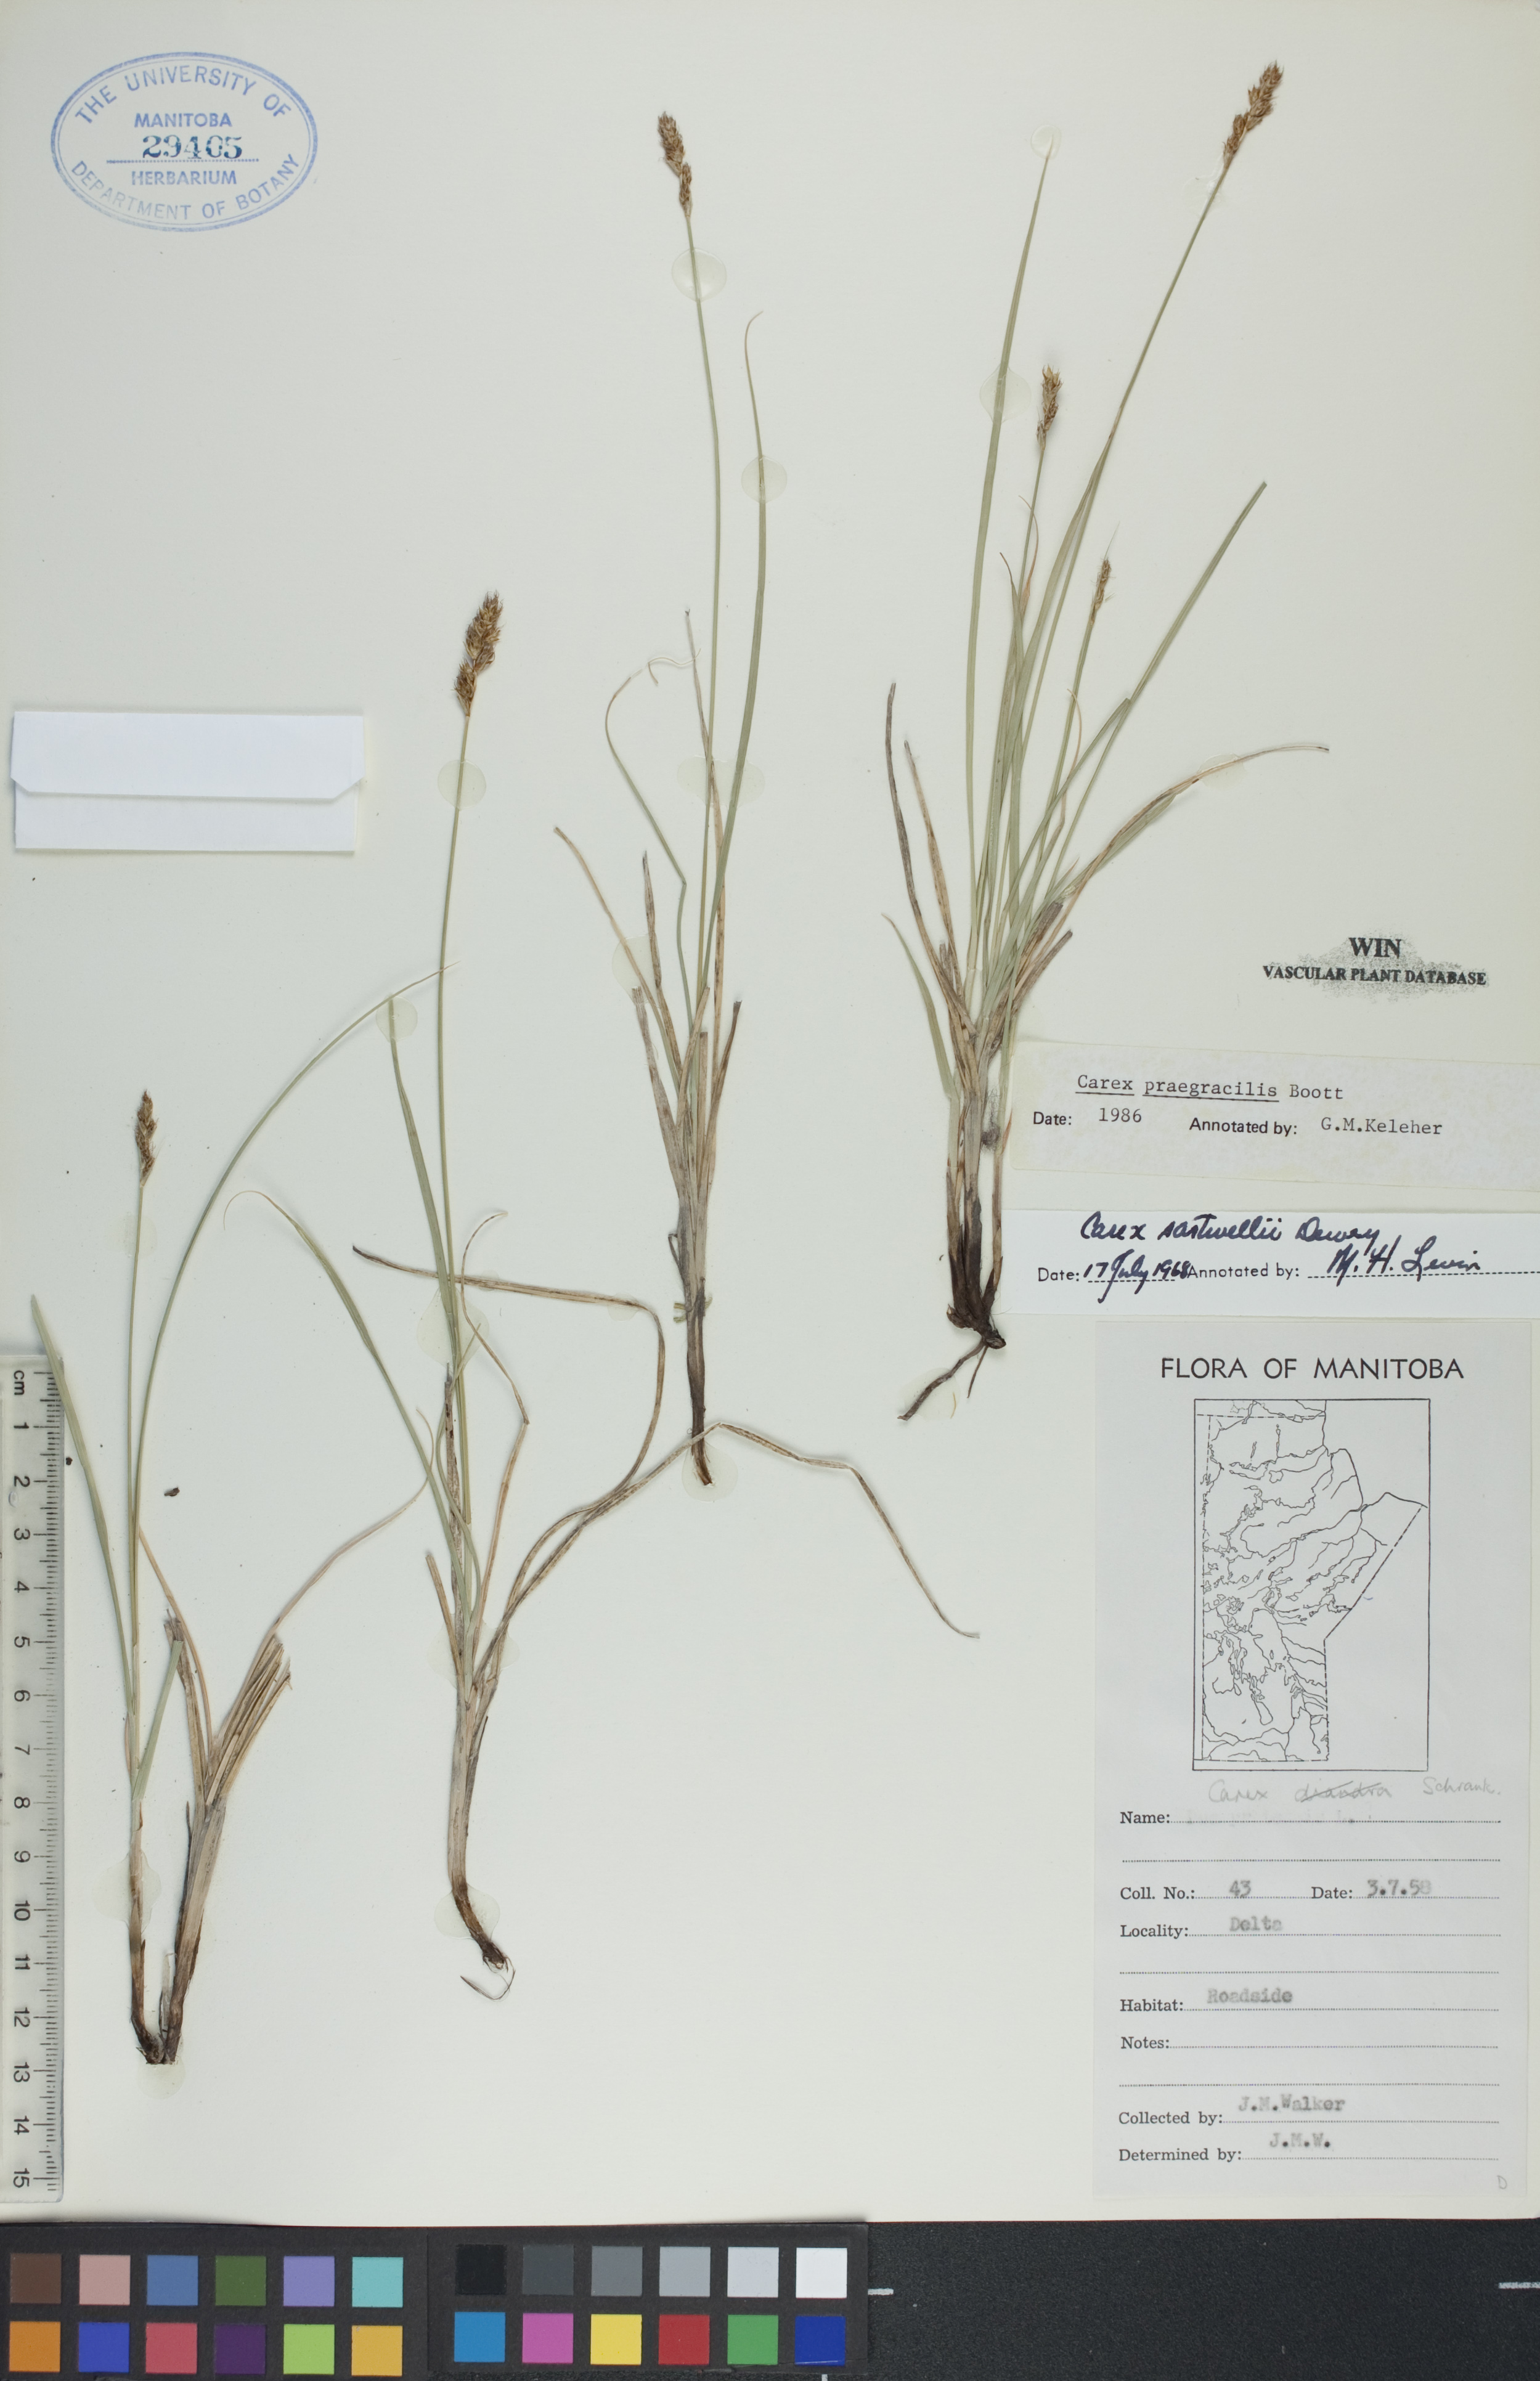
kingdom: Plantae
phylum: Tracheophyta
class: Liliopsida
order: Poales
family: Cyperaceae
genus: Carex
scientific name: Carex praegracilis
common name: Black creeper sedge
